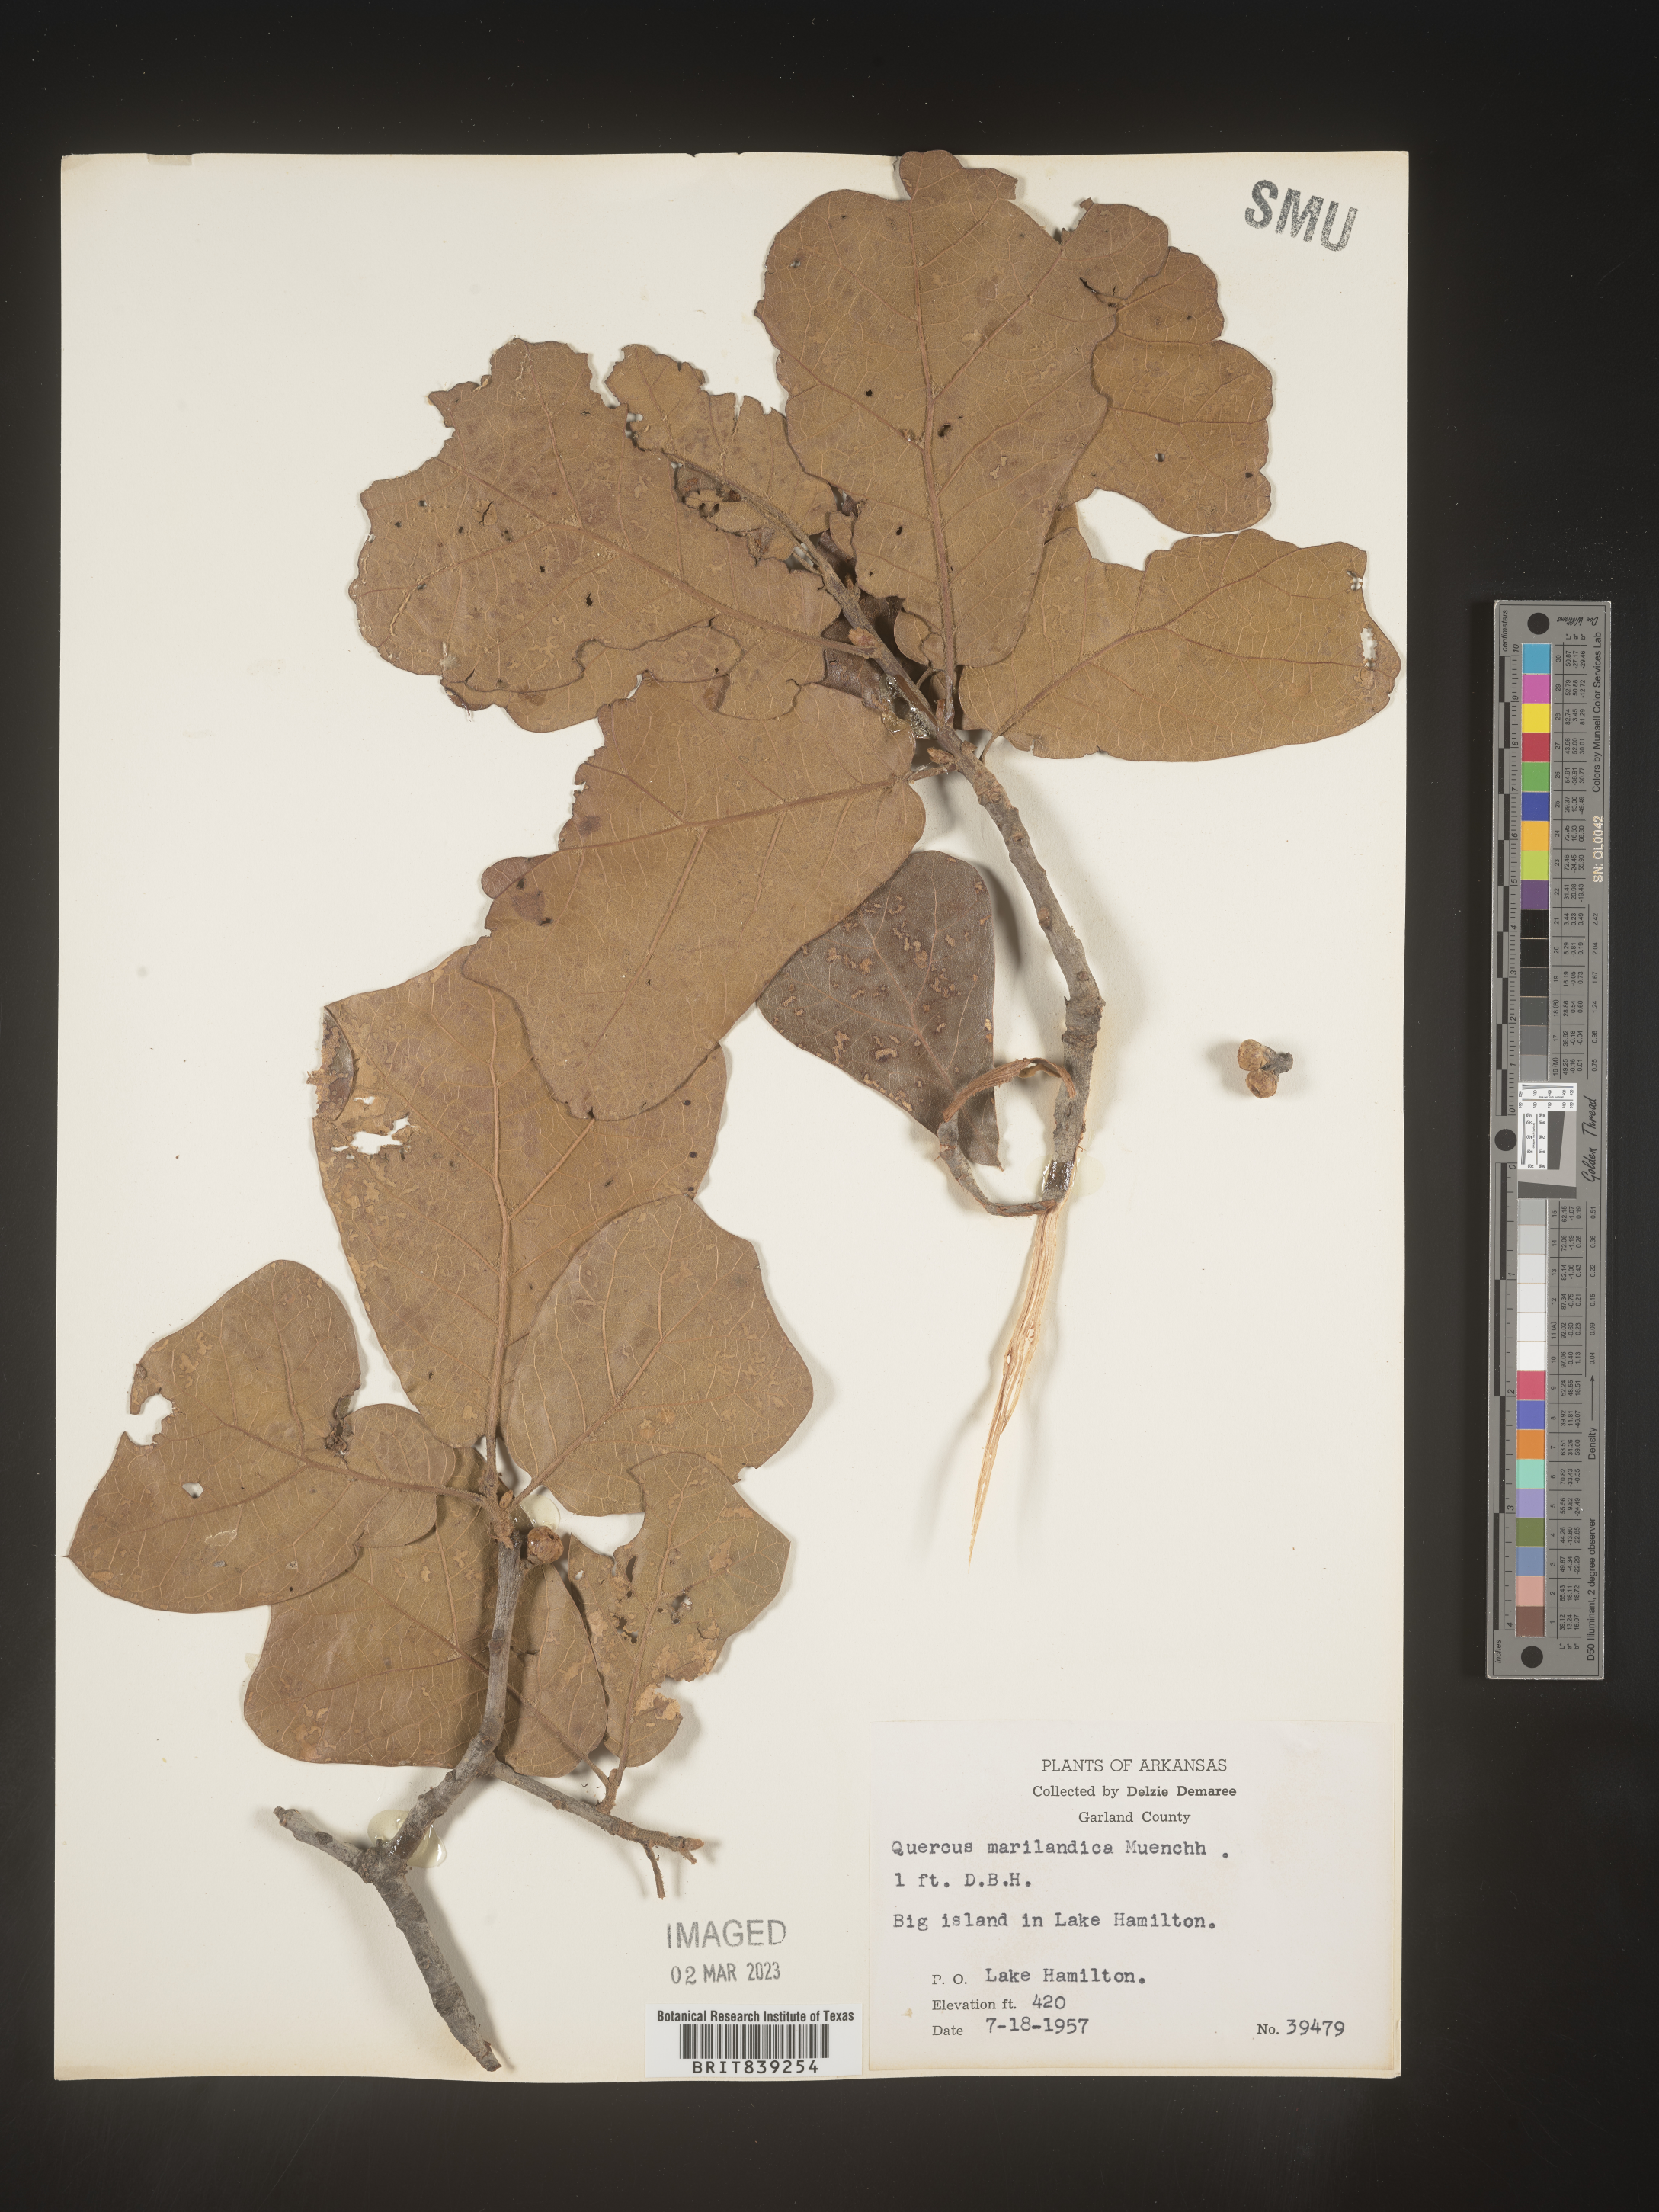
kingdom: Plantae
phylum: Tracheophyta
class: Magnoliopsida
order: Fagales
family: Fagaceae
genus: Quercus
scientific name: Quercus marilandica
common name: Blackjack oak
